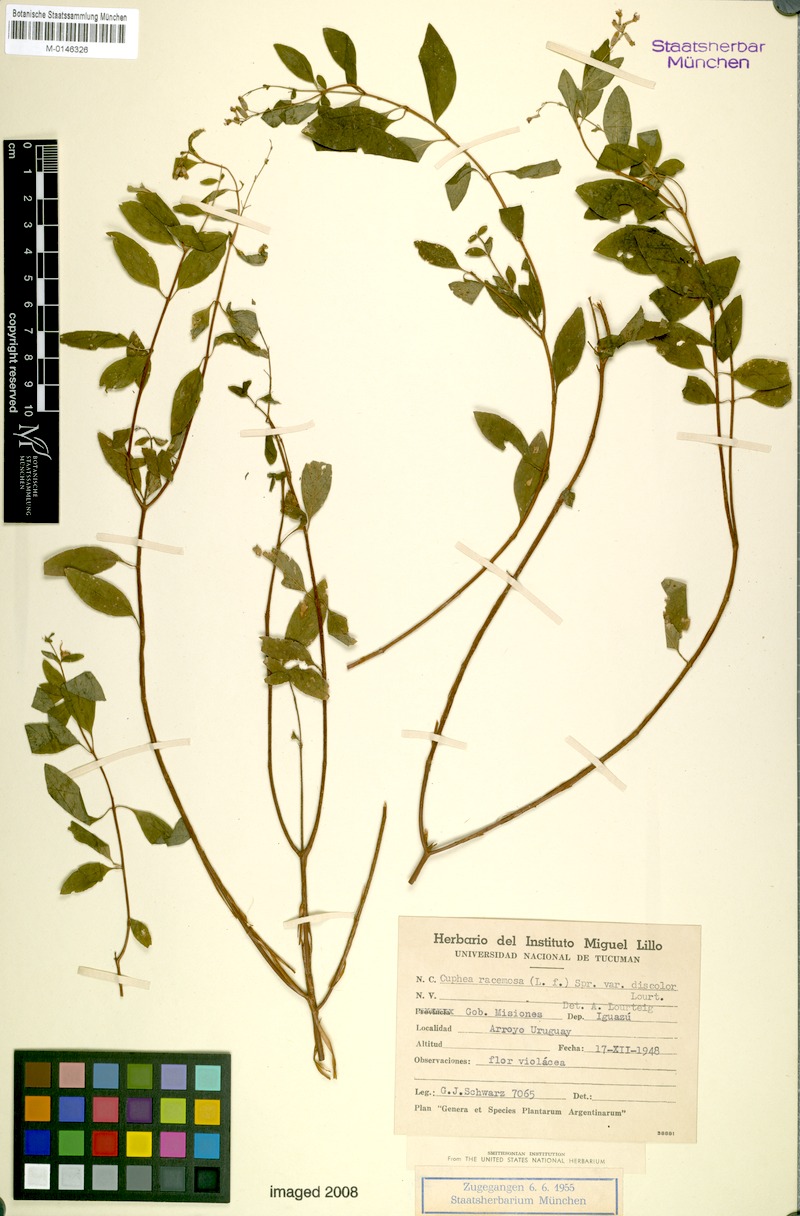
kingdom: Plantae
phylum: Tracheophyta
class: Magnoliopsida
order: Myrtales
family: Lythraceae
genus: Cuphea
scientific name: Cuphea racemosa
